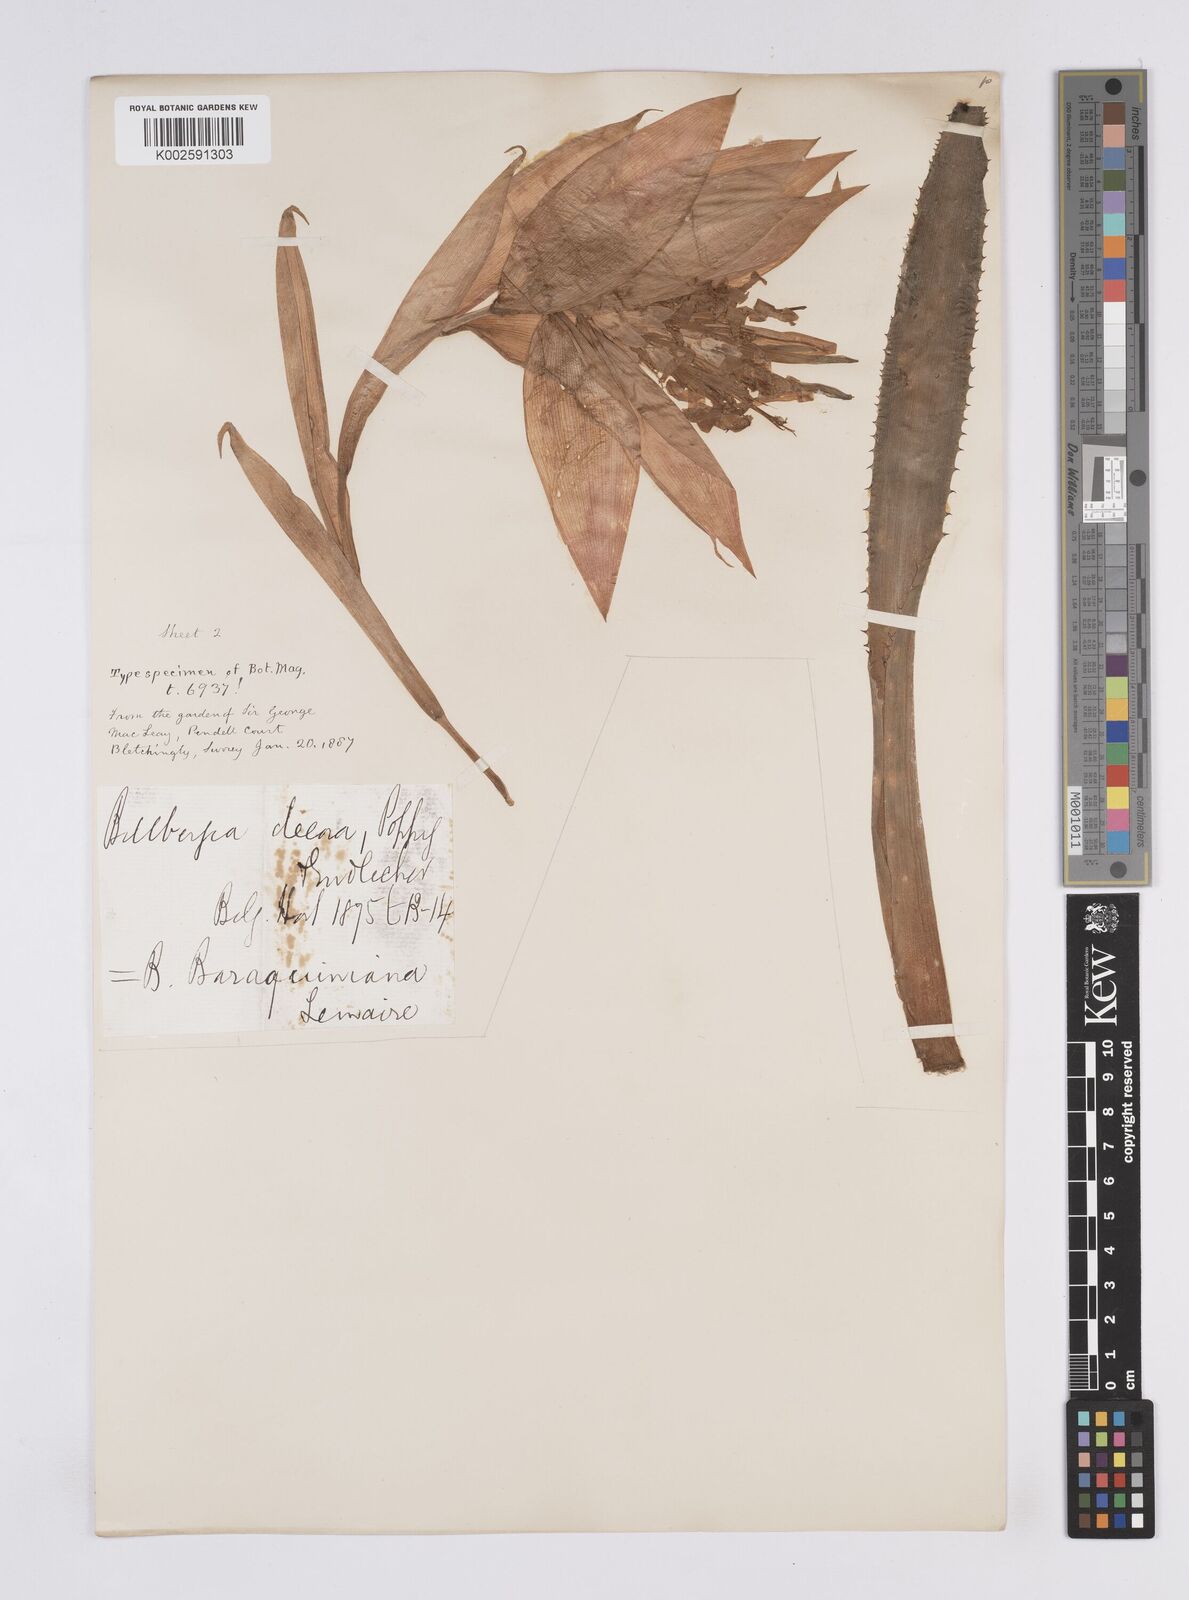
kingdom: Plantae
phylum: Tracheophyta
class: Liliopsida
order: Poales
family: Bromeliaceae
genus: Billbergia
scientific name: Billbergia decora
